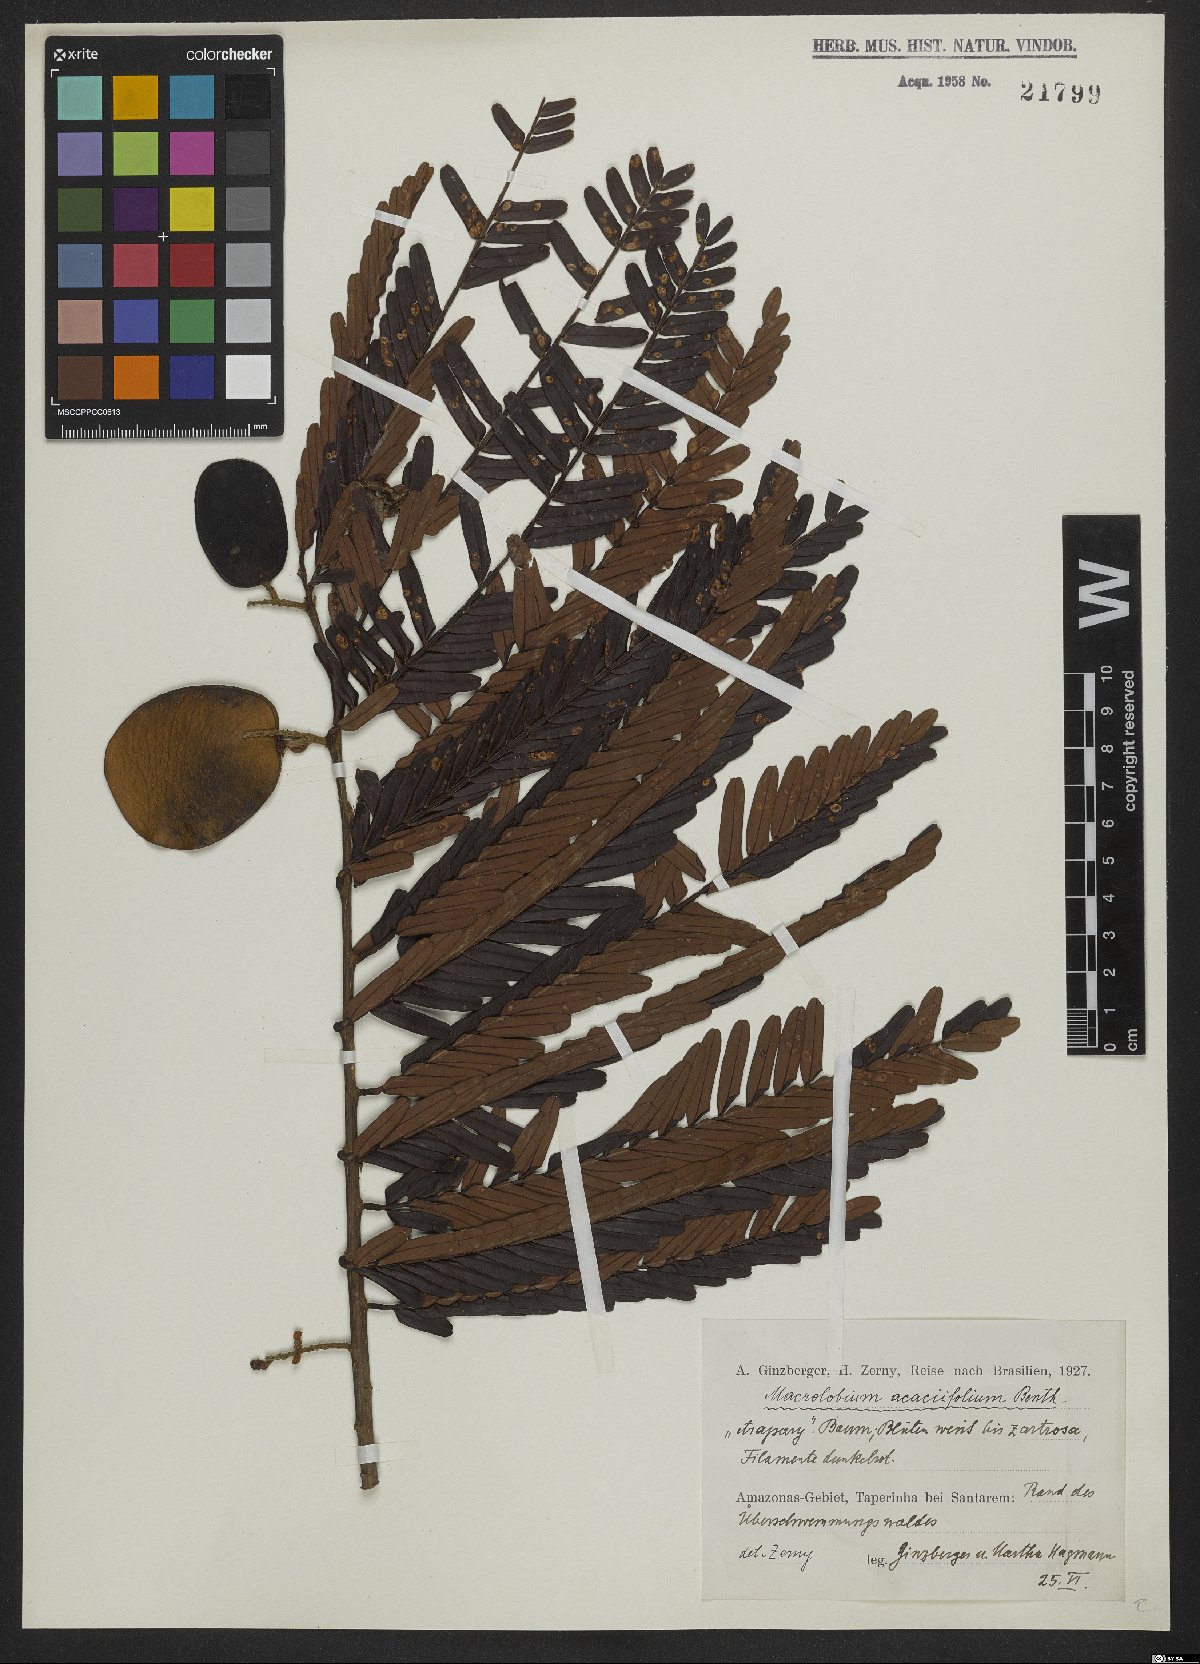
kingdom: Plantae
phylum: Tracheophyta
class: Magnoliopsida
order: Fabales
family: Fabaceae
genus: Macrolobium
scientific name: Macrolobium acaciifolium
